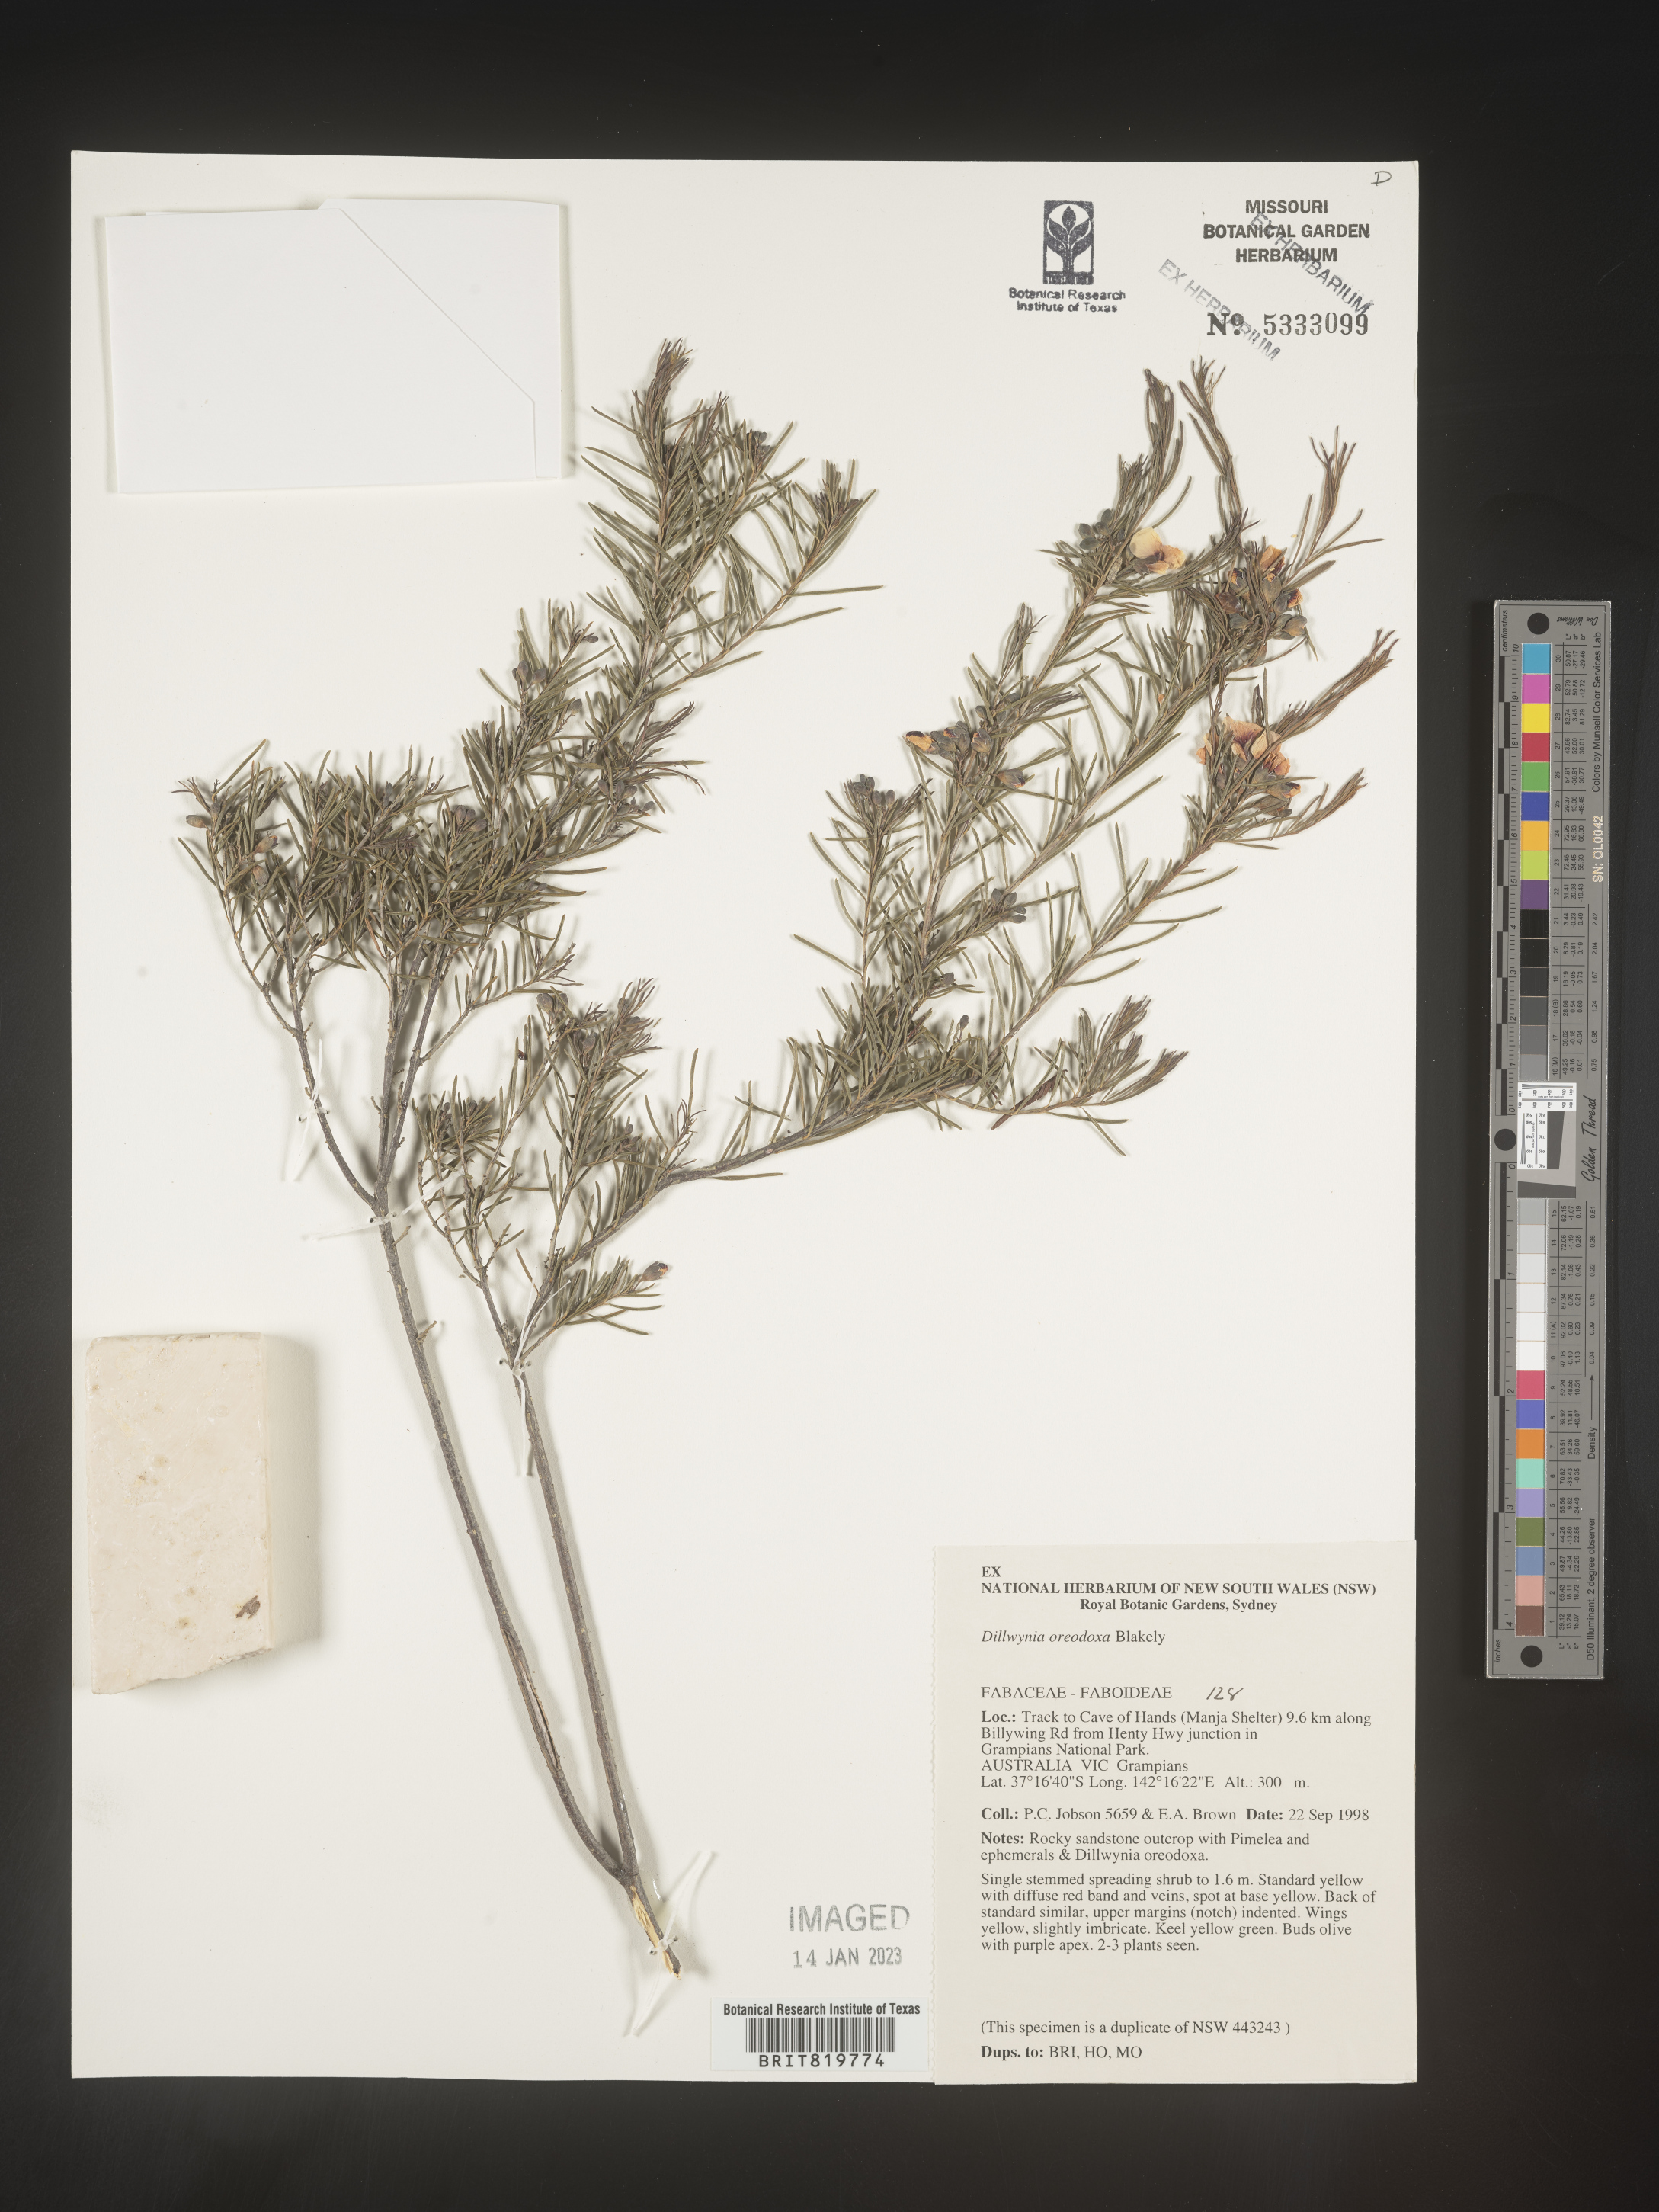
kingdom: Plantae
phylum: Tracheophyta
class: Magnoliopsida
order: Fabales
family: Fabaceae
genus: Dillwynia
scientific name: Dillwynia
